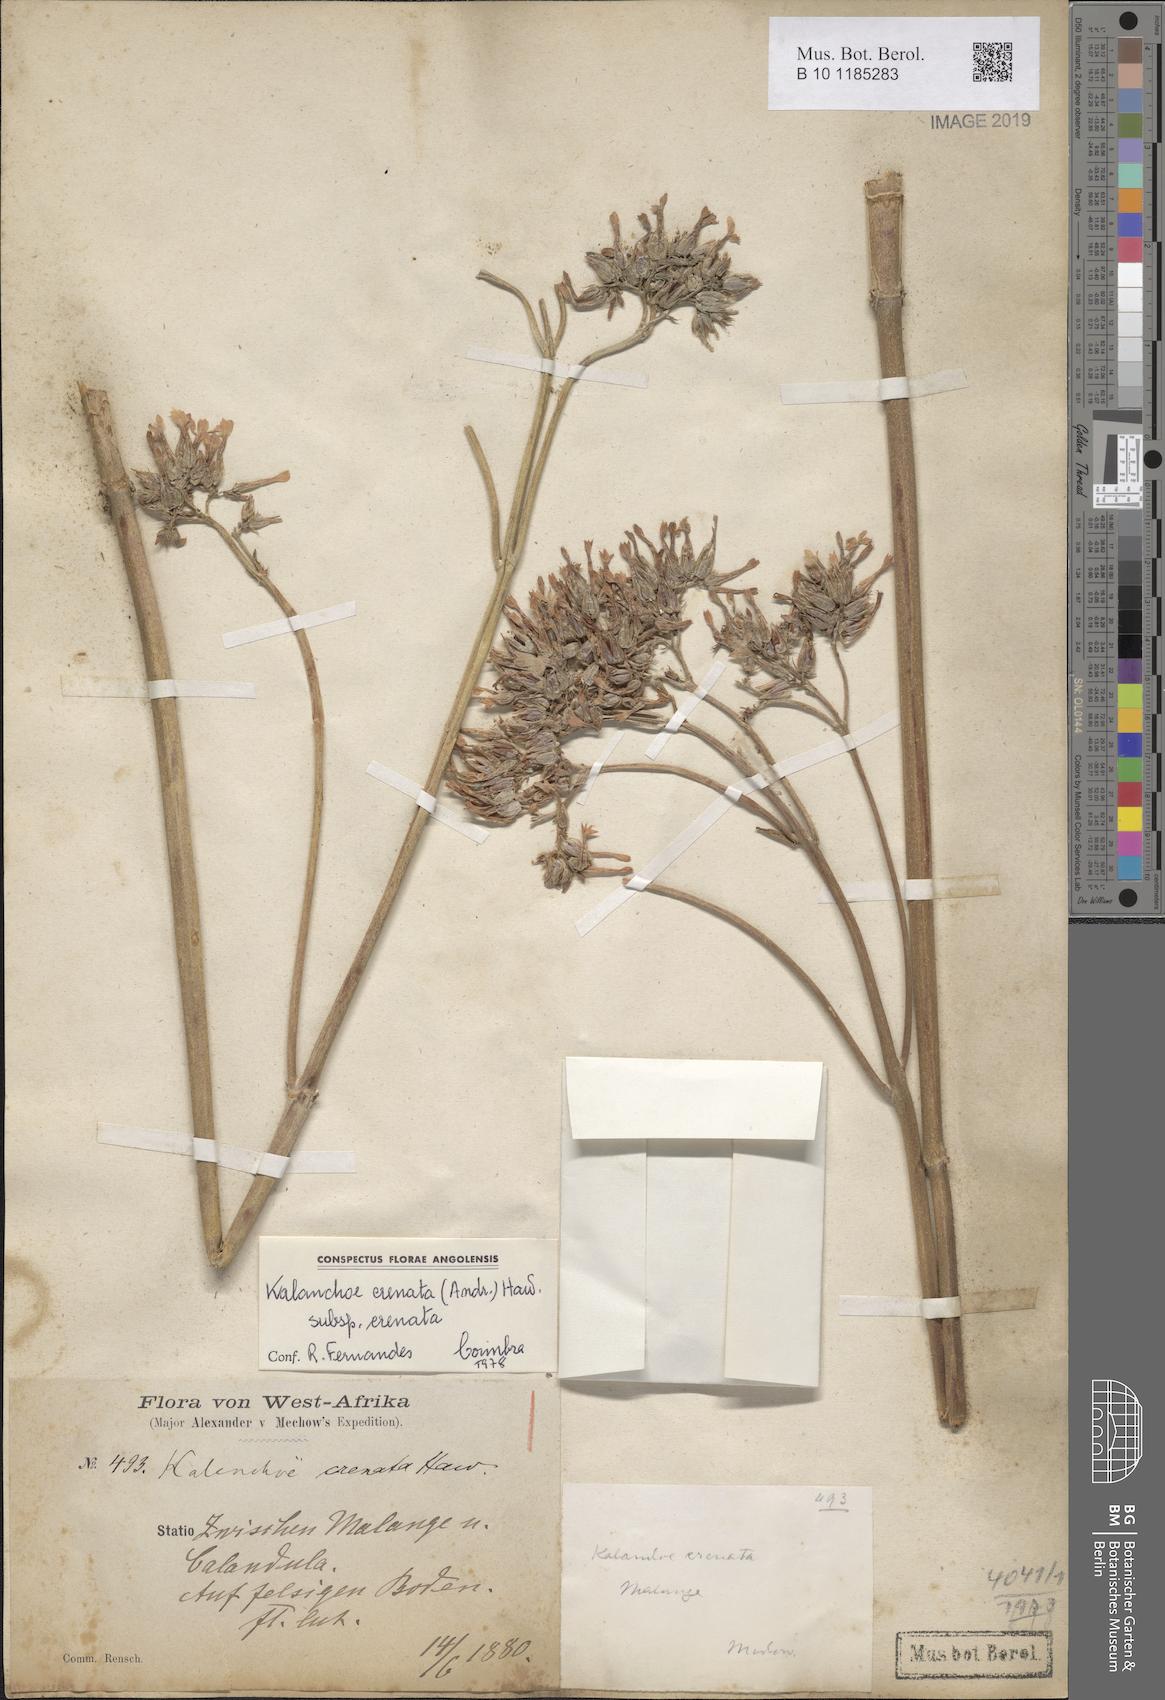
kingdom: Plantae
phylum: Tracheophyta
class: Magnoliopsida
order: Saxifragales
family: Crassulaceae
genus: Kalanchoe
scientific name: Kalanchoe crenata
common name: Neverdie
